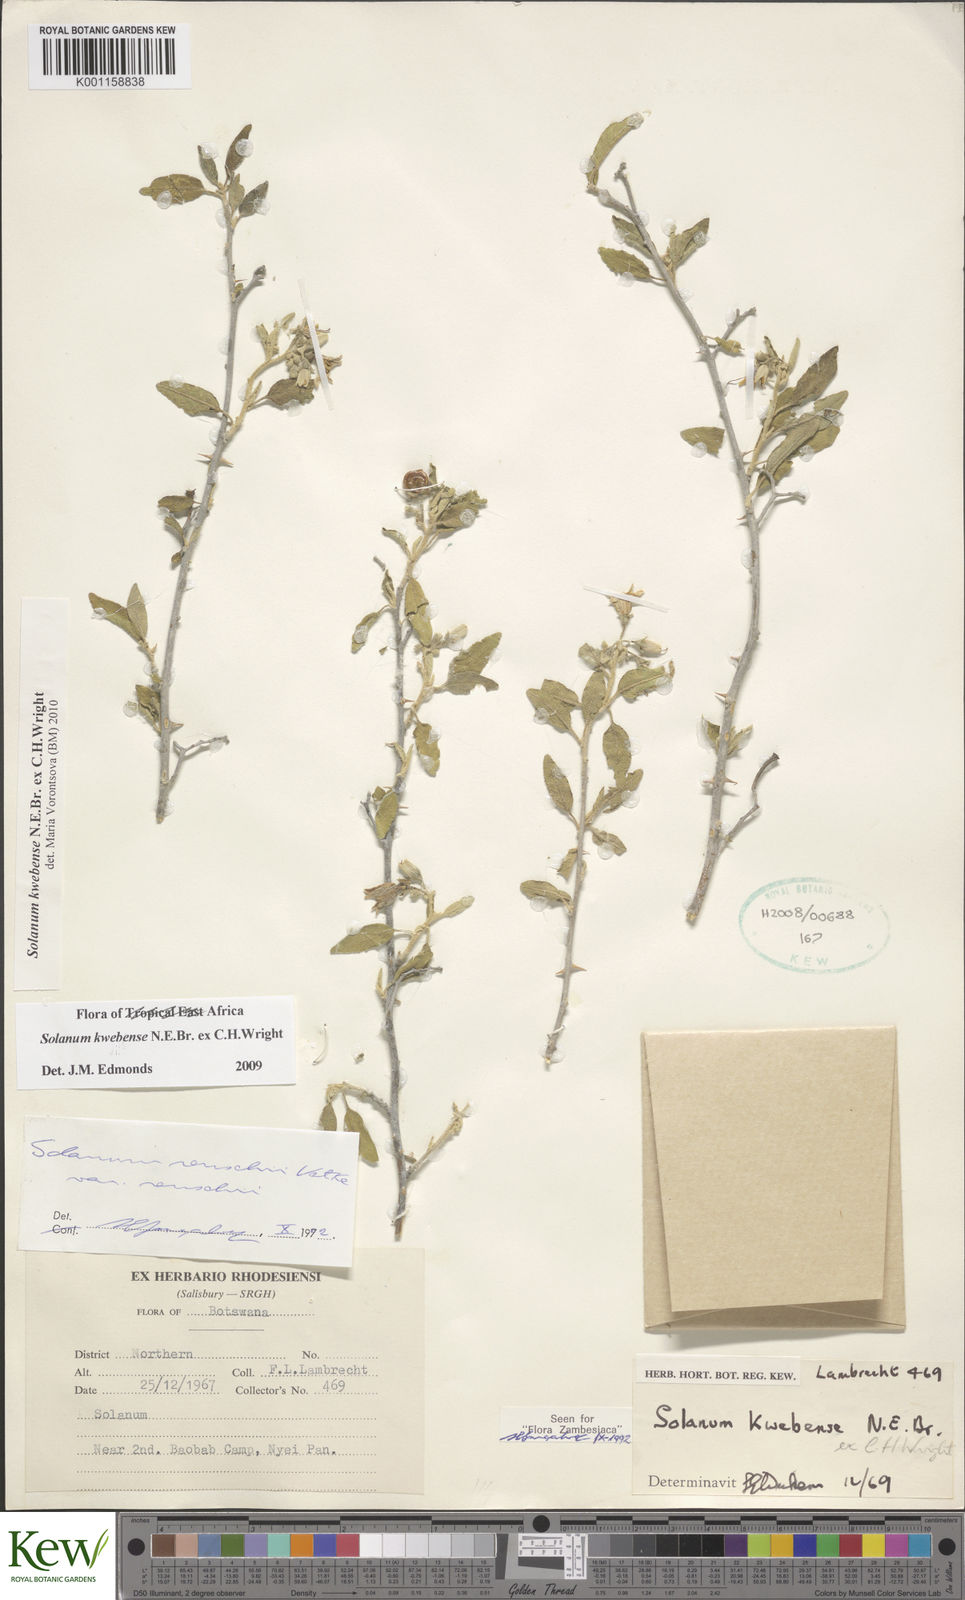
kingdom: Plantae
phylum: Tracheophyta
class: Magnoliopsida
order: Solanales
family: Solanaceae
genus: Solanum
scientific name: Solanum tettense
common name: Mozambique bitter apple
